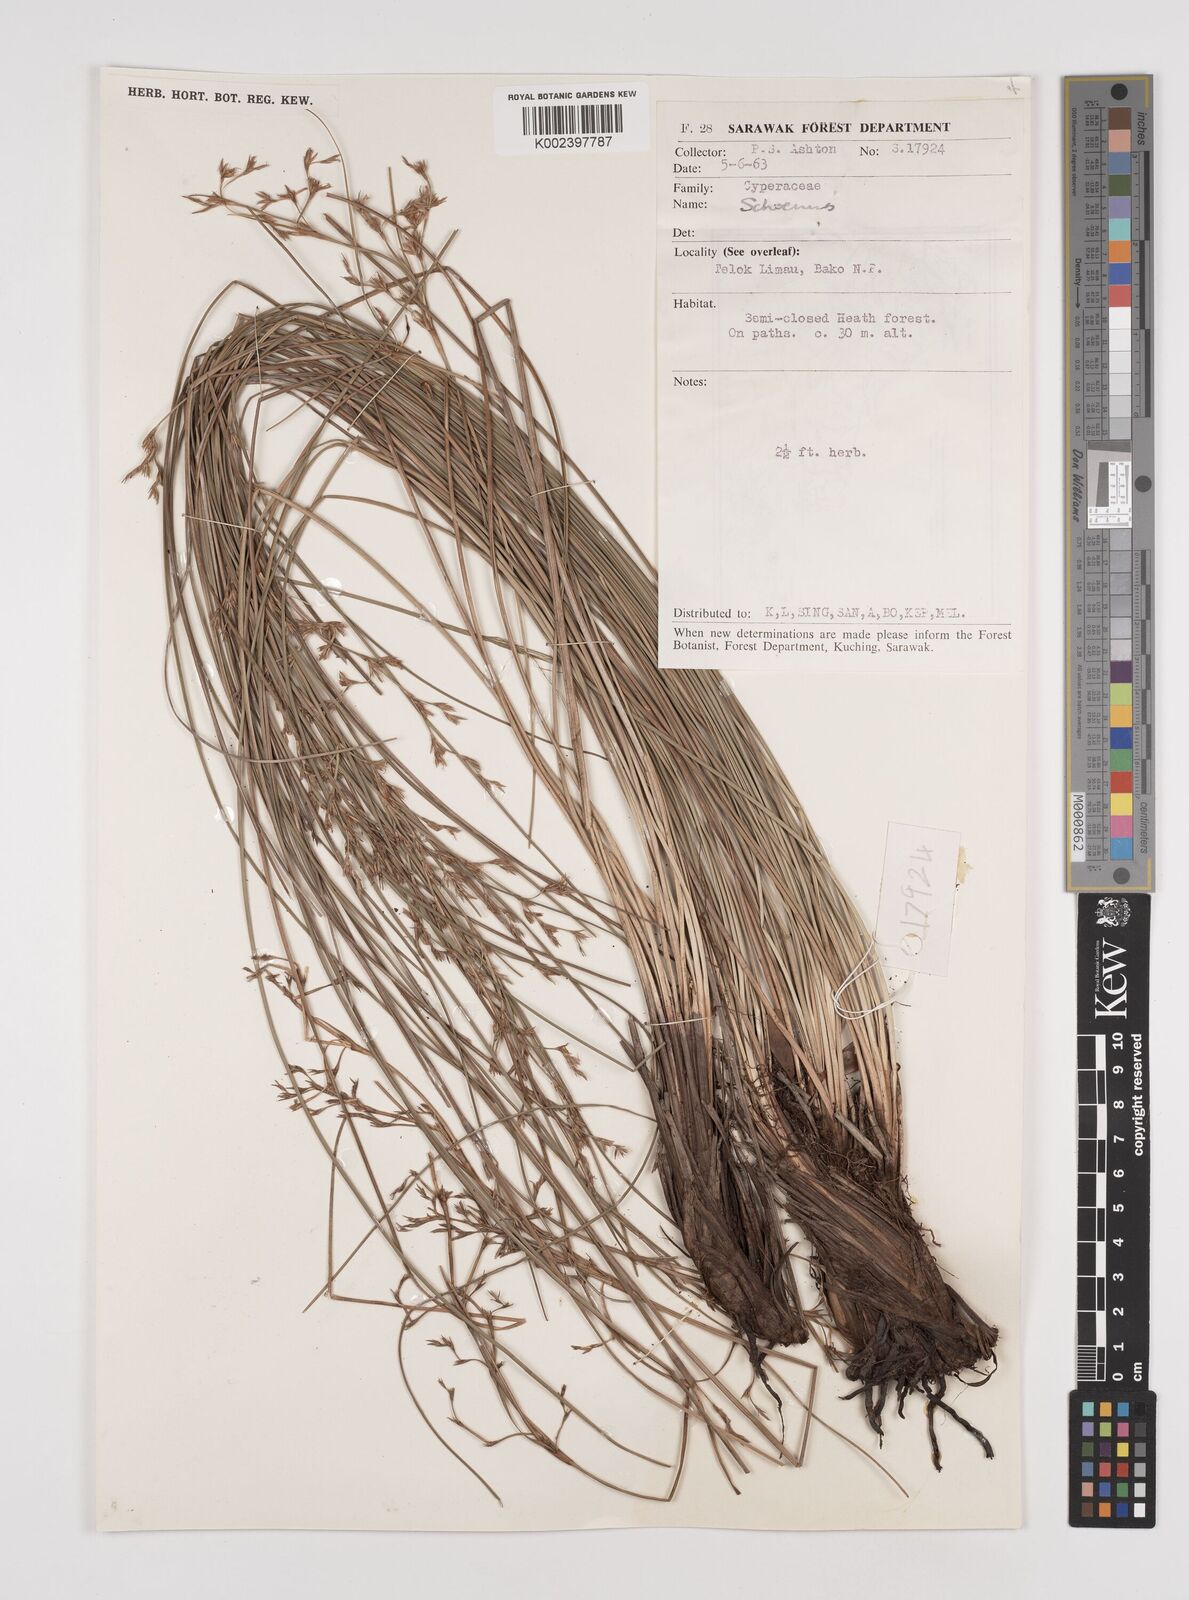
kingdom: Plantae
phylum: Tracheophyta
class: Liliopsida
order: Poales
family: Cyperaceae
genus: Schoenus
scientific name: Schoenus
